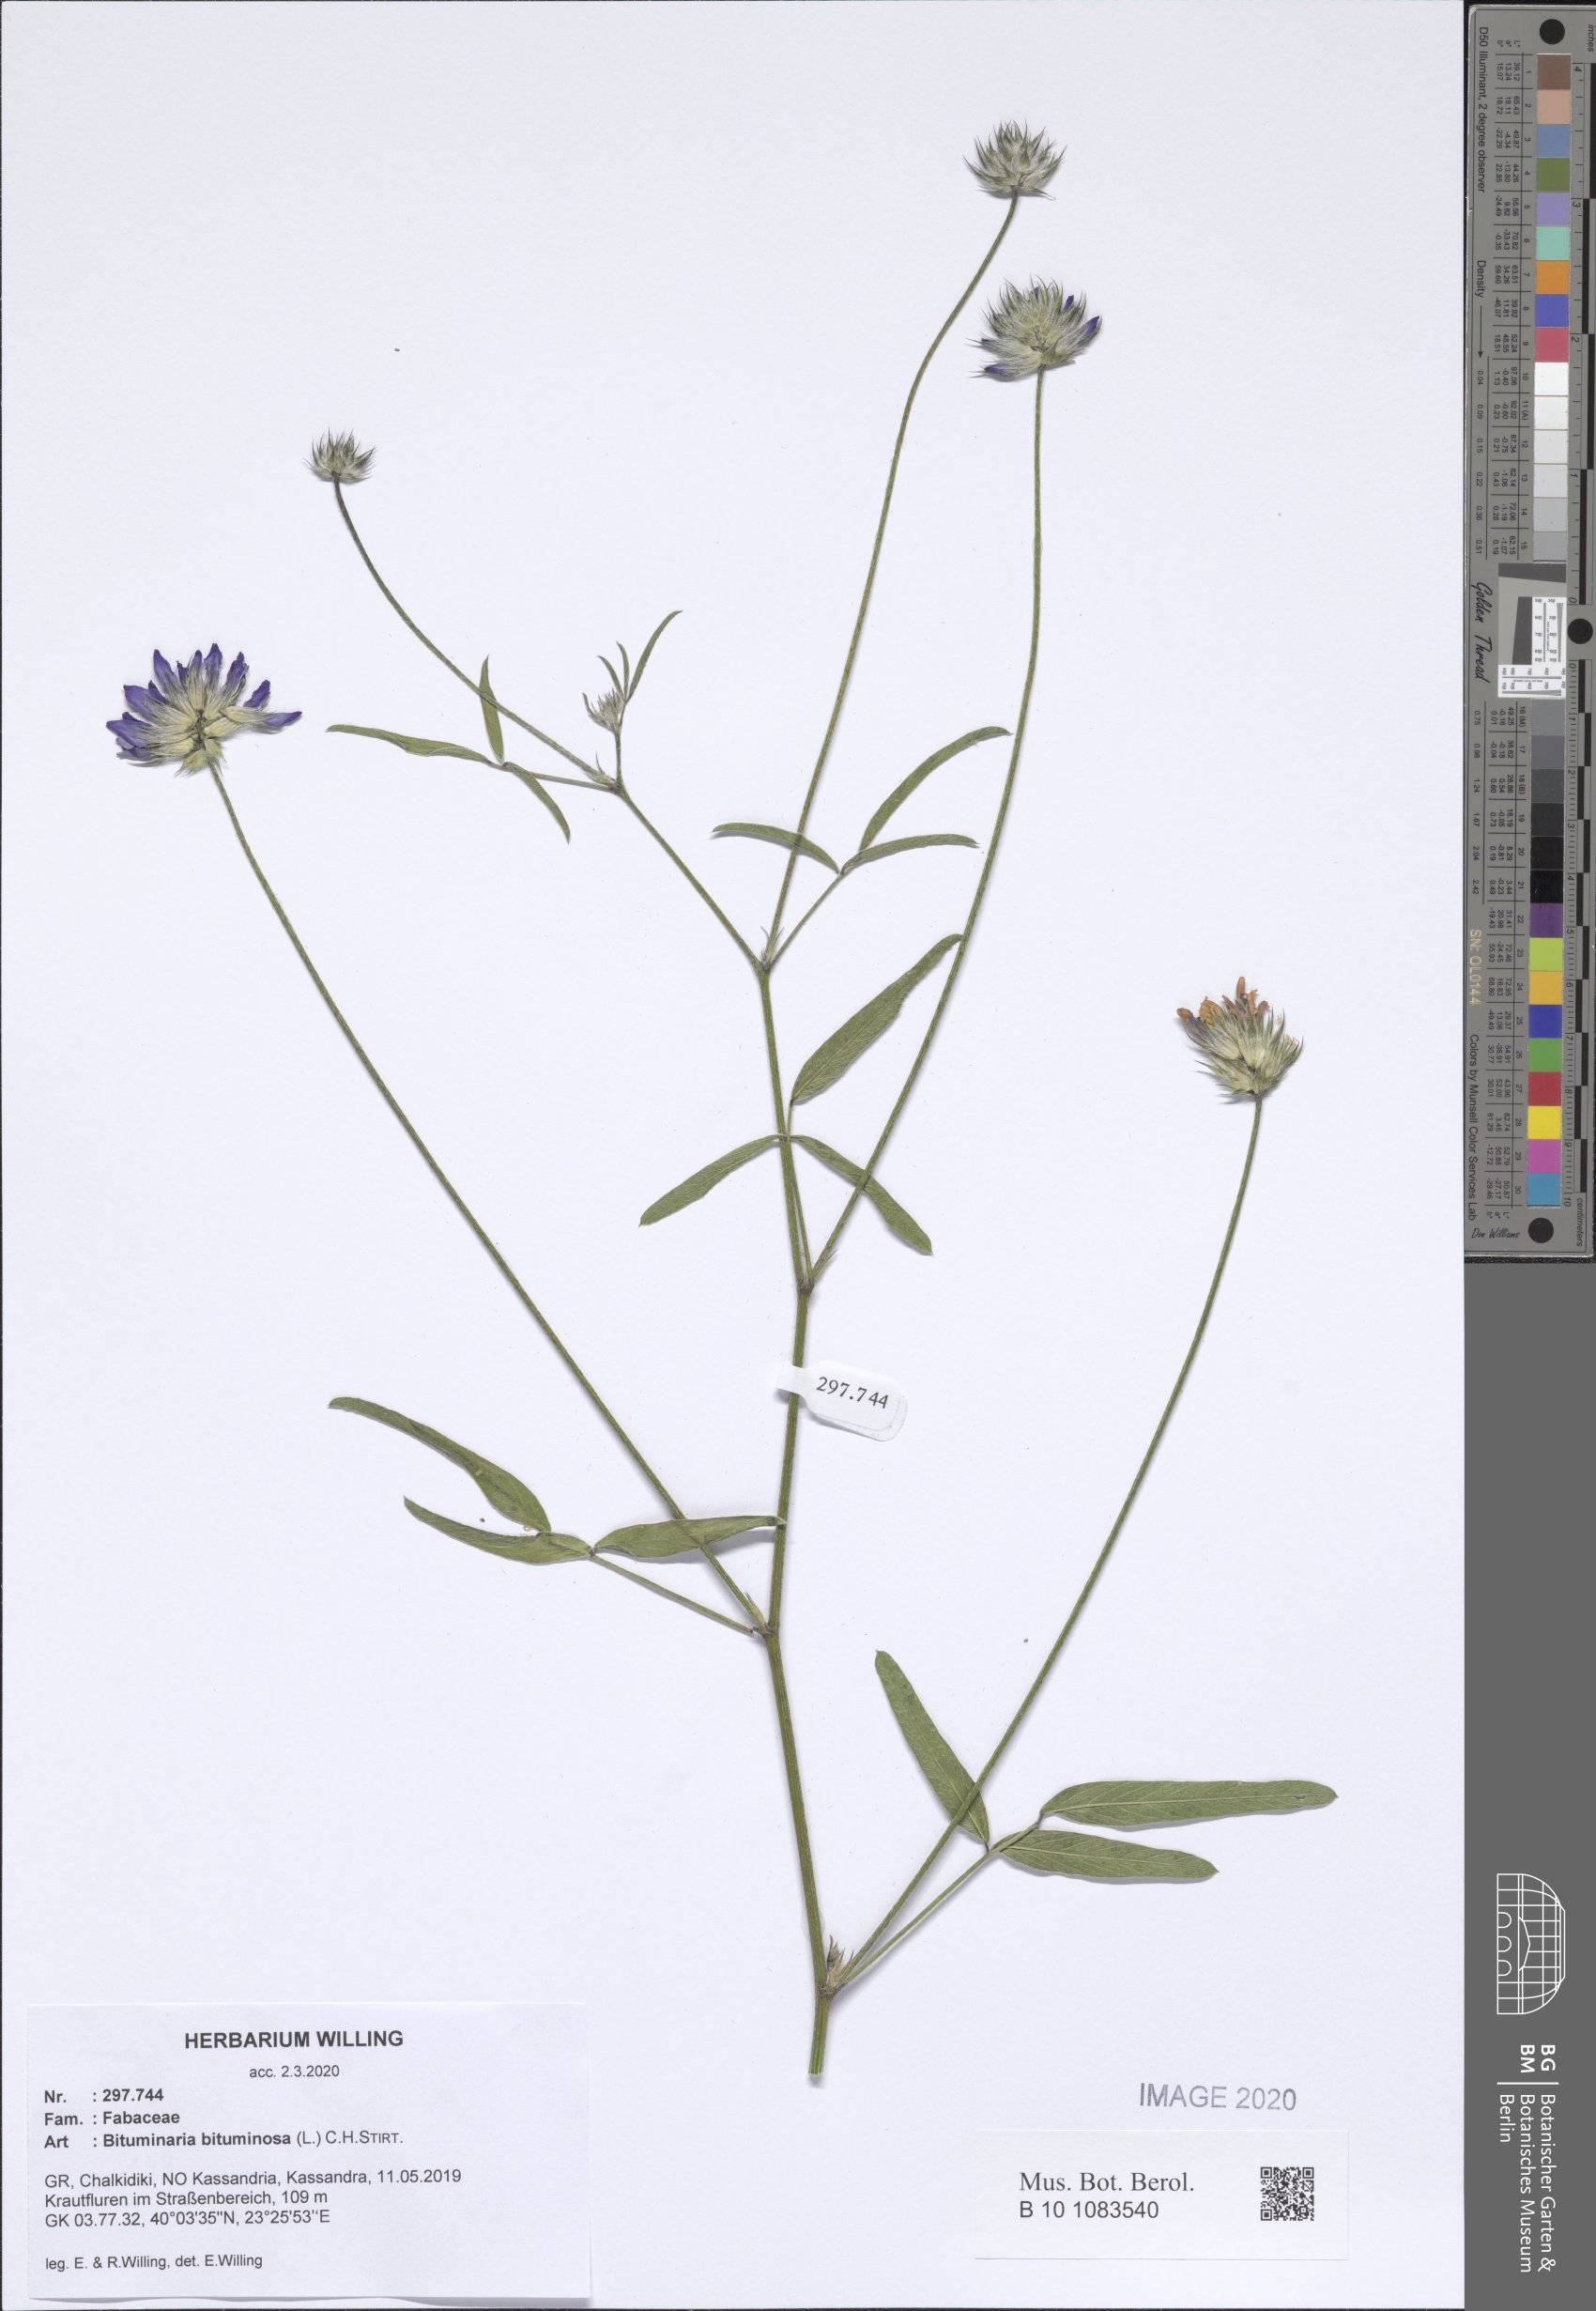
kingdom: Plantae
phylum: Tracheophyta
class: Magnoliopsida
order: Fabales
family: Fabaceae
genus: Bituminaria
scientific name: Bituminaria bituminosa
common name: Arabian pea
